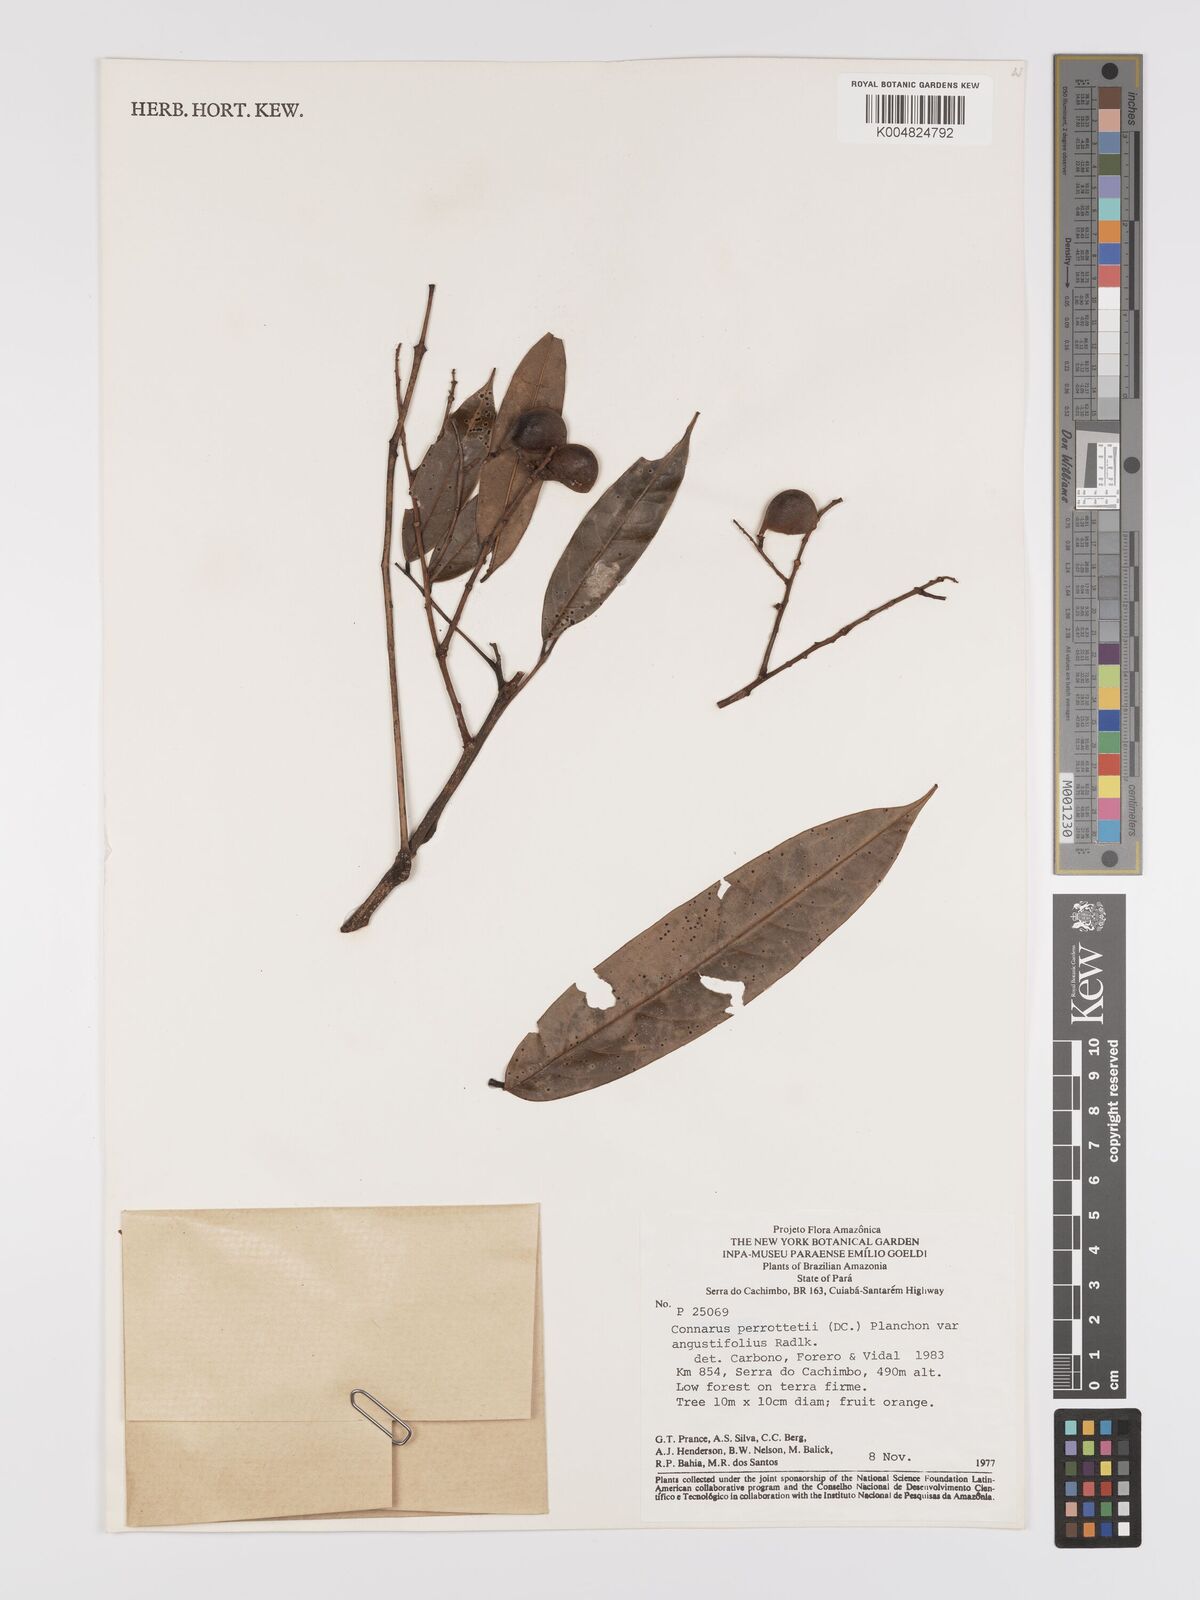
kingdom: Plantae
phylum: Tracheophyta
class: Magnoliopsida
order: Oxalidales
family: Connaraceae
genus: Connarus
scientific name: Connarus perrottetii
